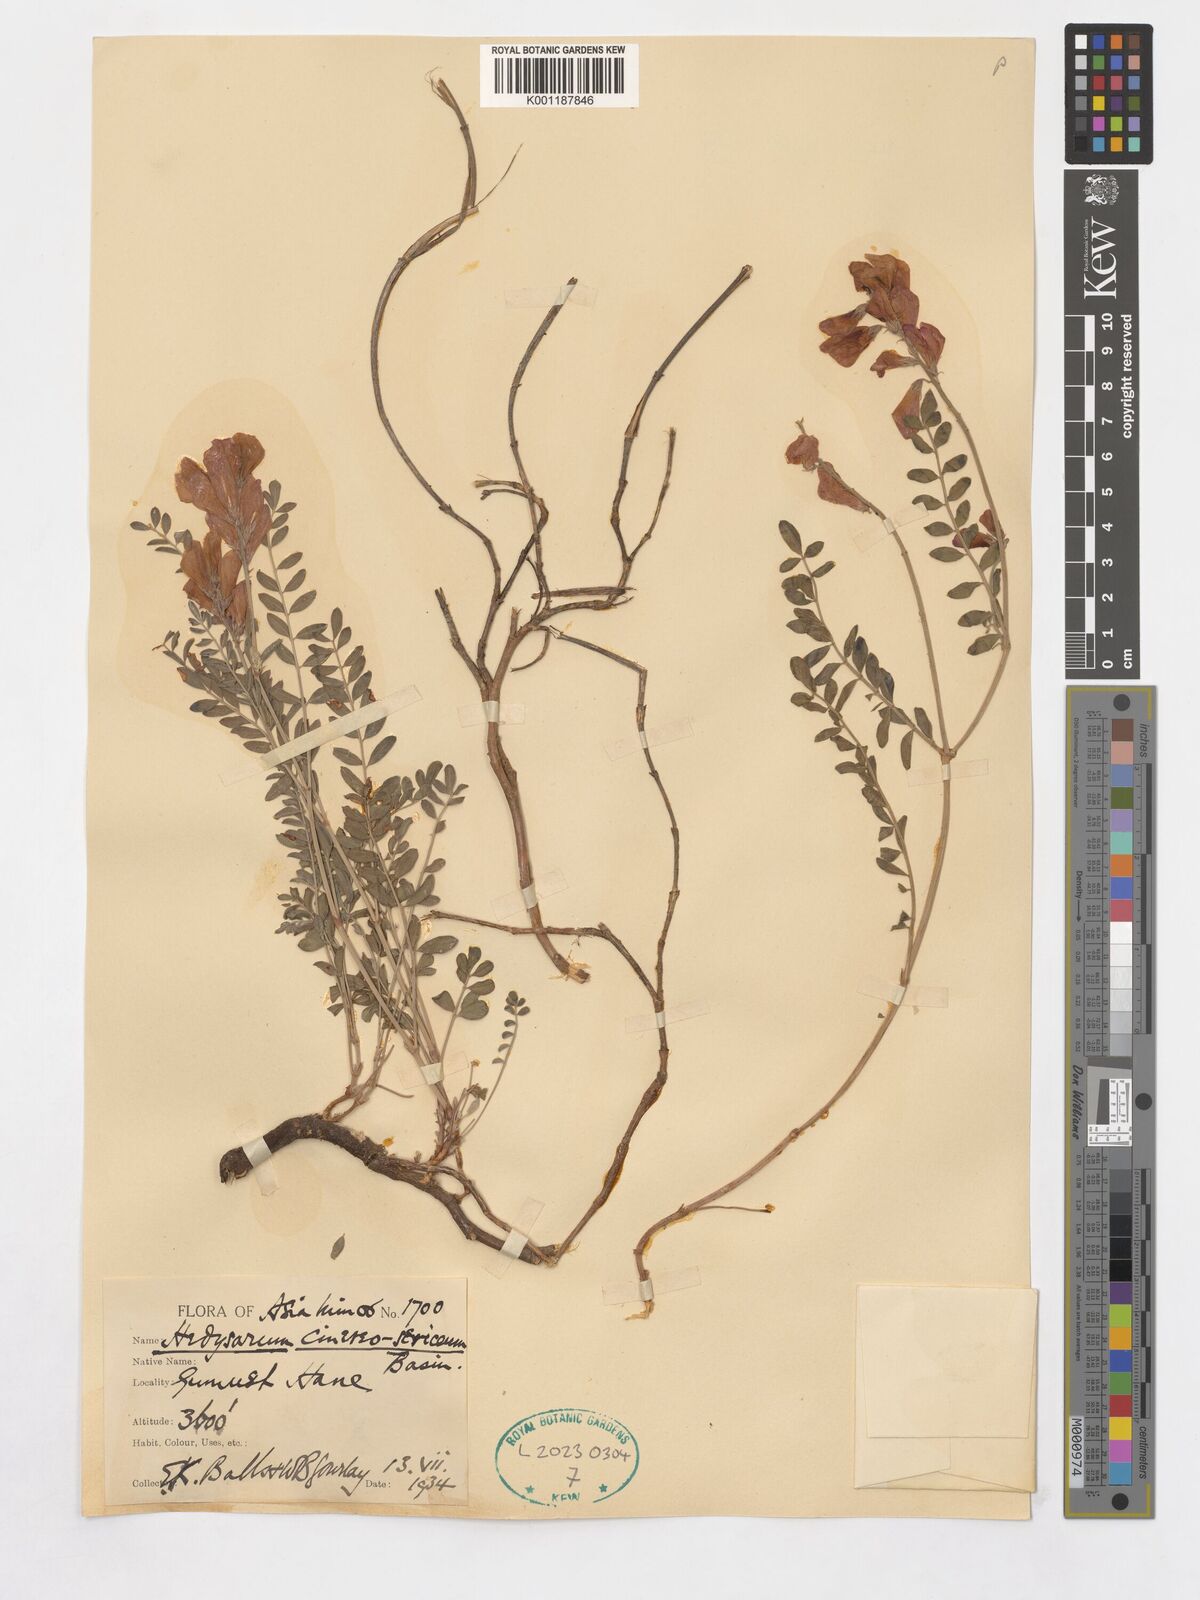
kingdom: Plantae
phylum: Tracheophyta
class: Magnoliopsida
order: Fabales
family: Fabaceae
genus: Hedysarum
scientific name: Hedysarum nitidum
